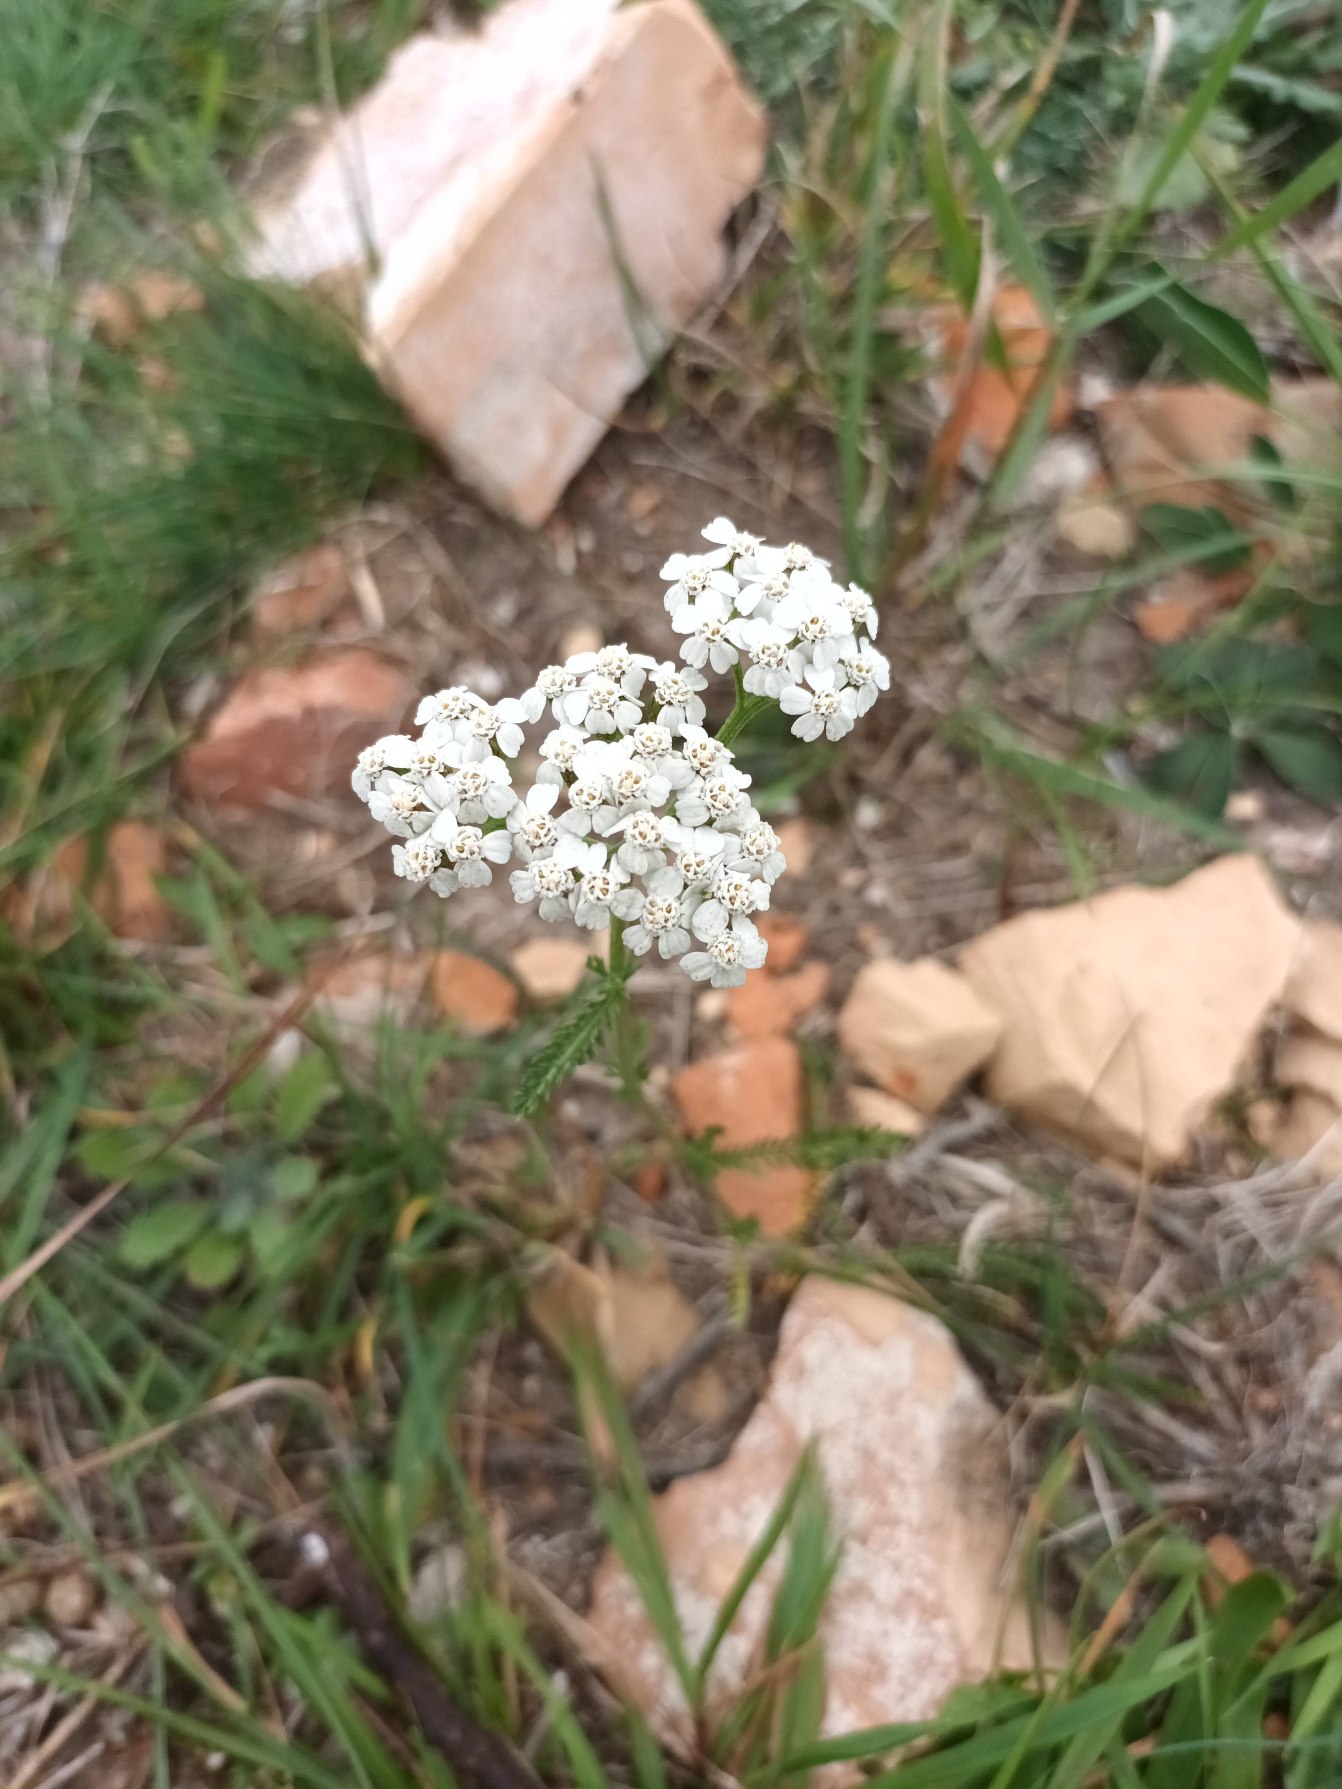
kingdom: Plantae
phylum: Tracheophyta
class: Magnoliopsida
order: Asterales
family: Asteraceae
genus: Achillea
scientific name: Achillea millefolium
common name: Almindelig røllike
